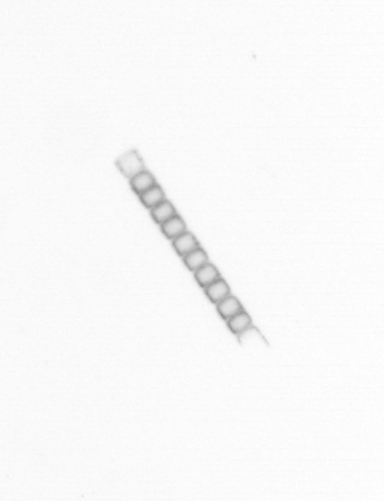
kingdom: Chromista
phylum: Ochrophyta
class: Bacillariophyceae
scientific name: Bacillariophyceae
